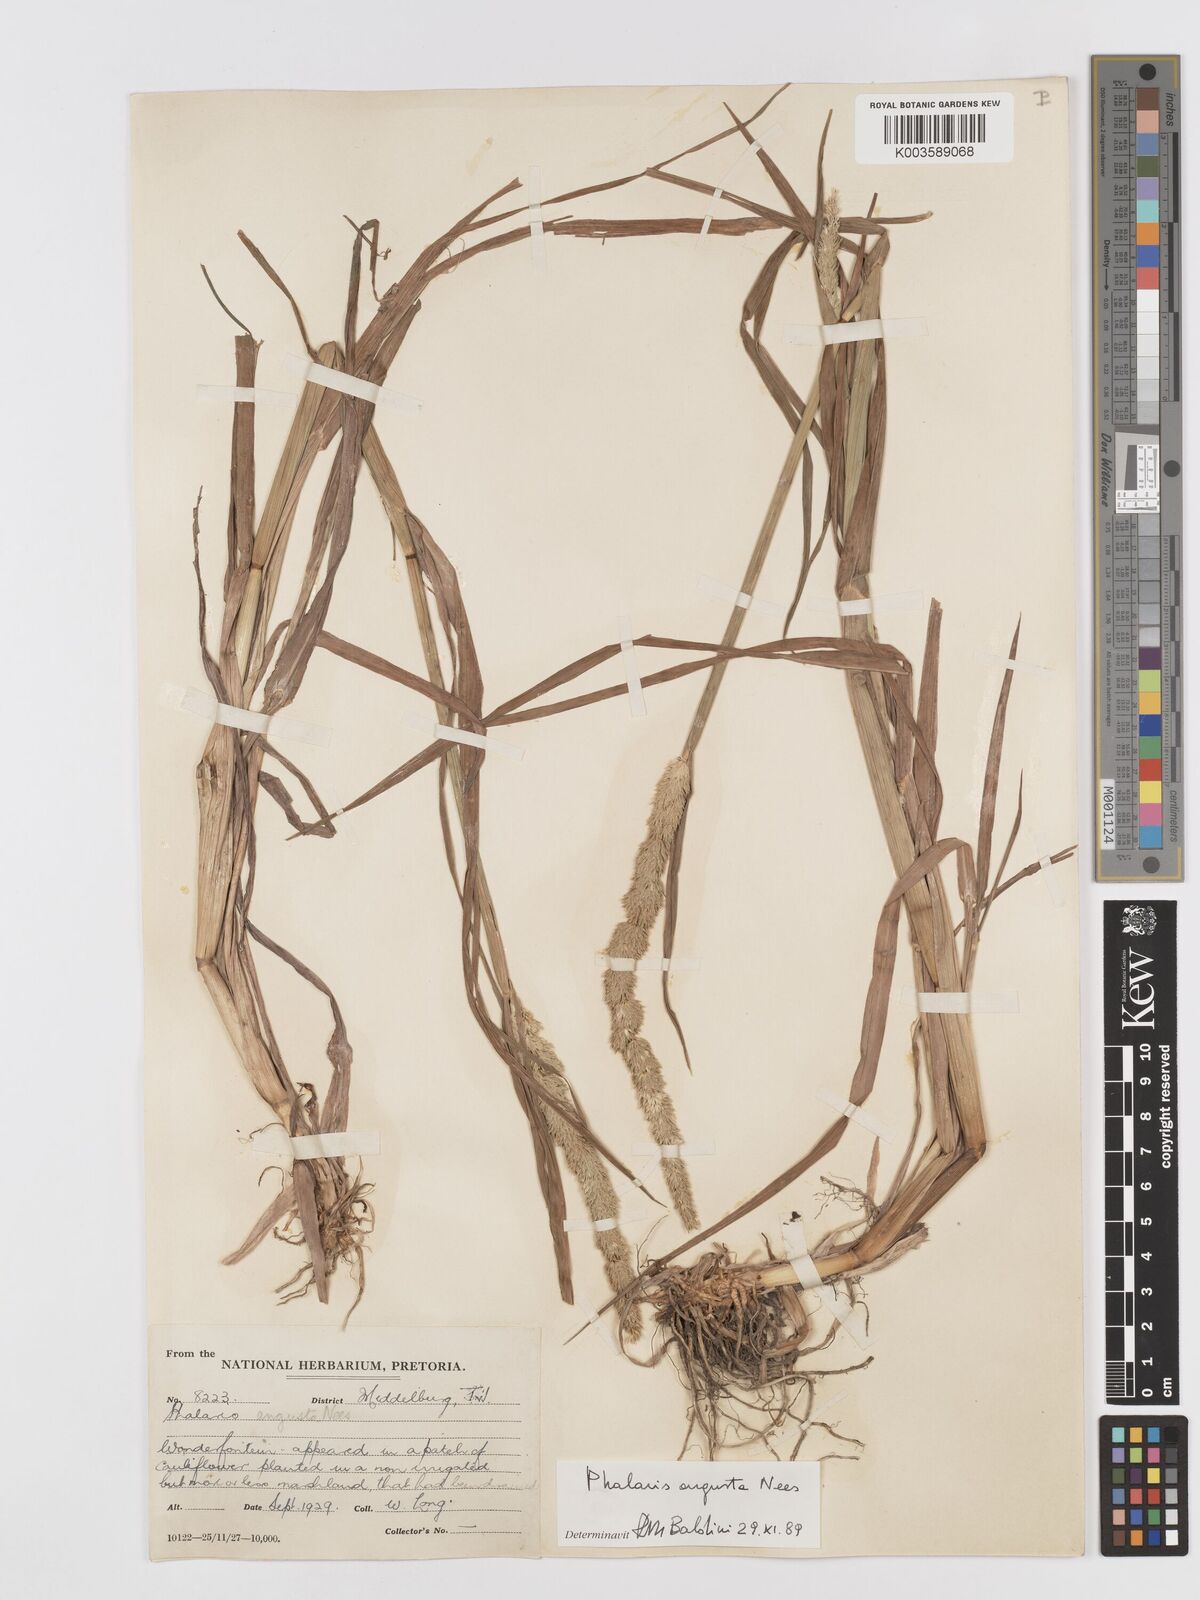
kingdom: Plantae
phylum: Tracheophyta
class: Liliopsida
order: Poales
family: Poaceae
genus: Phalaris
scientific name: Phalaris
